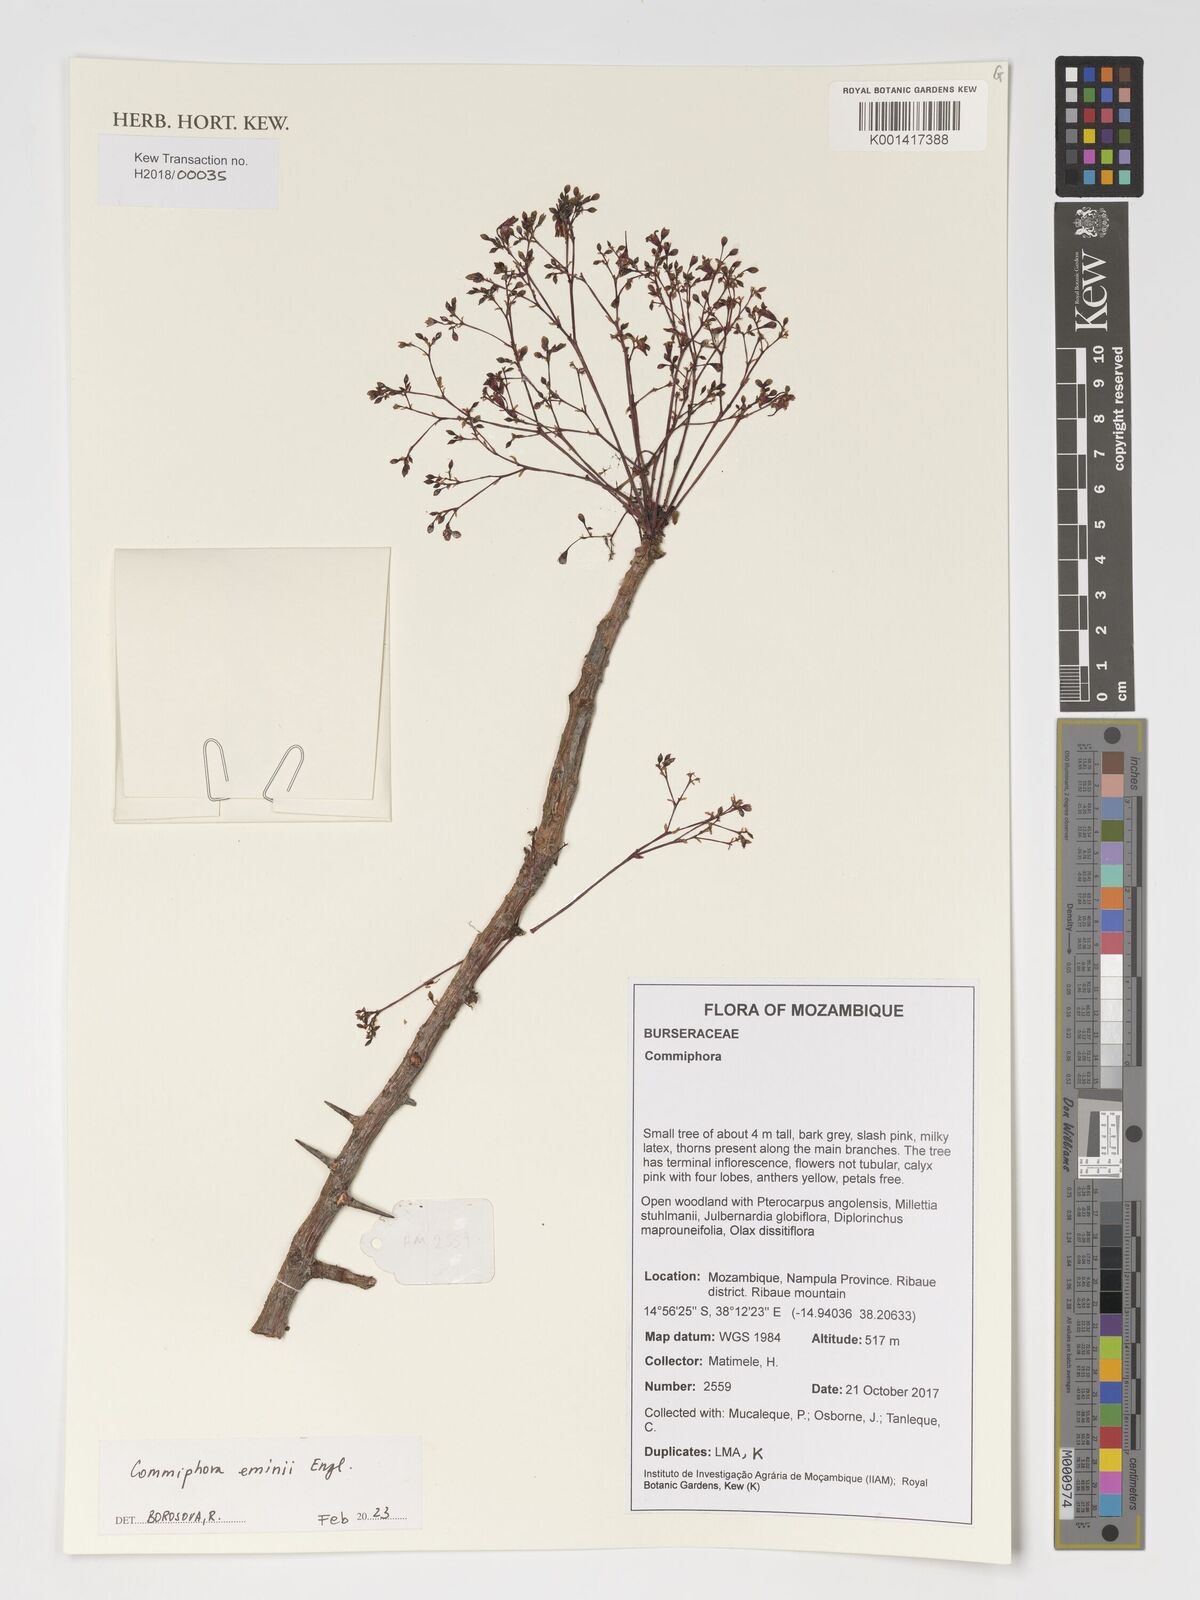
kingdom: Plantae
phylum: Tracheophyta
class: Magnoliopsida
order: Sapindales
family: Burseraceae
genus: Commiphora
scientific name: Commiphora eminii
